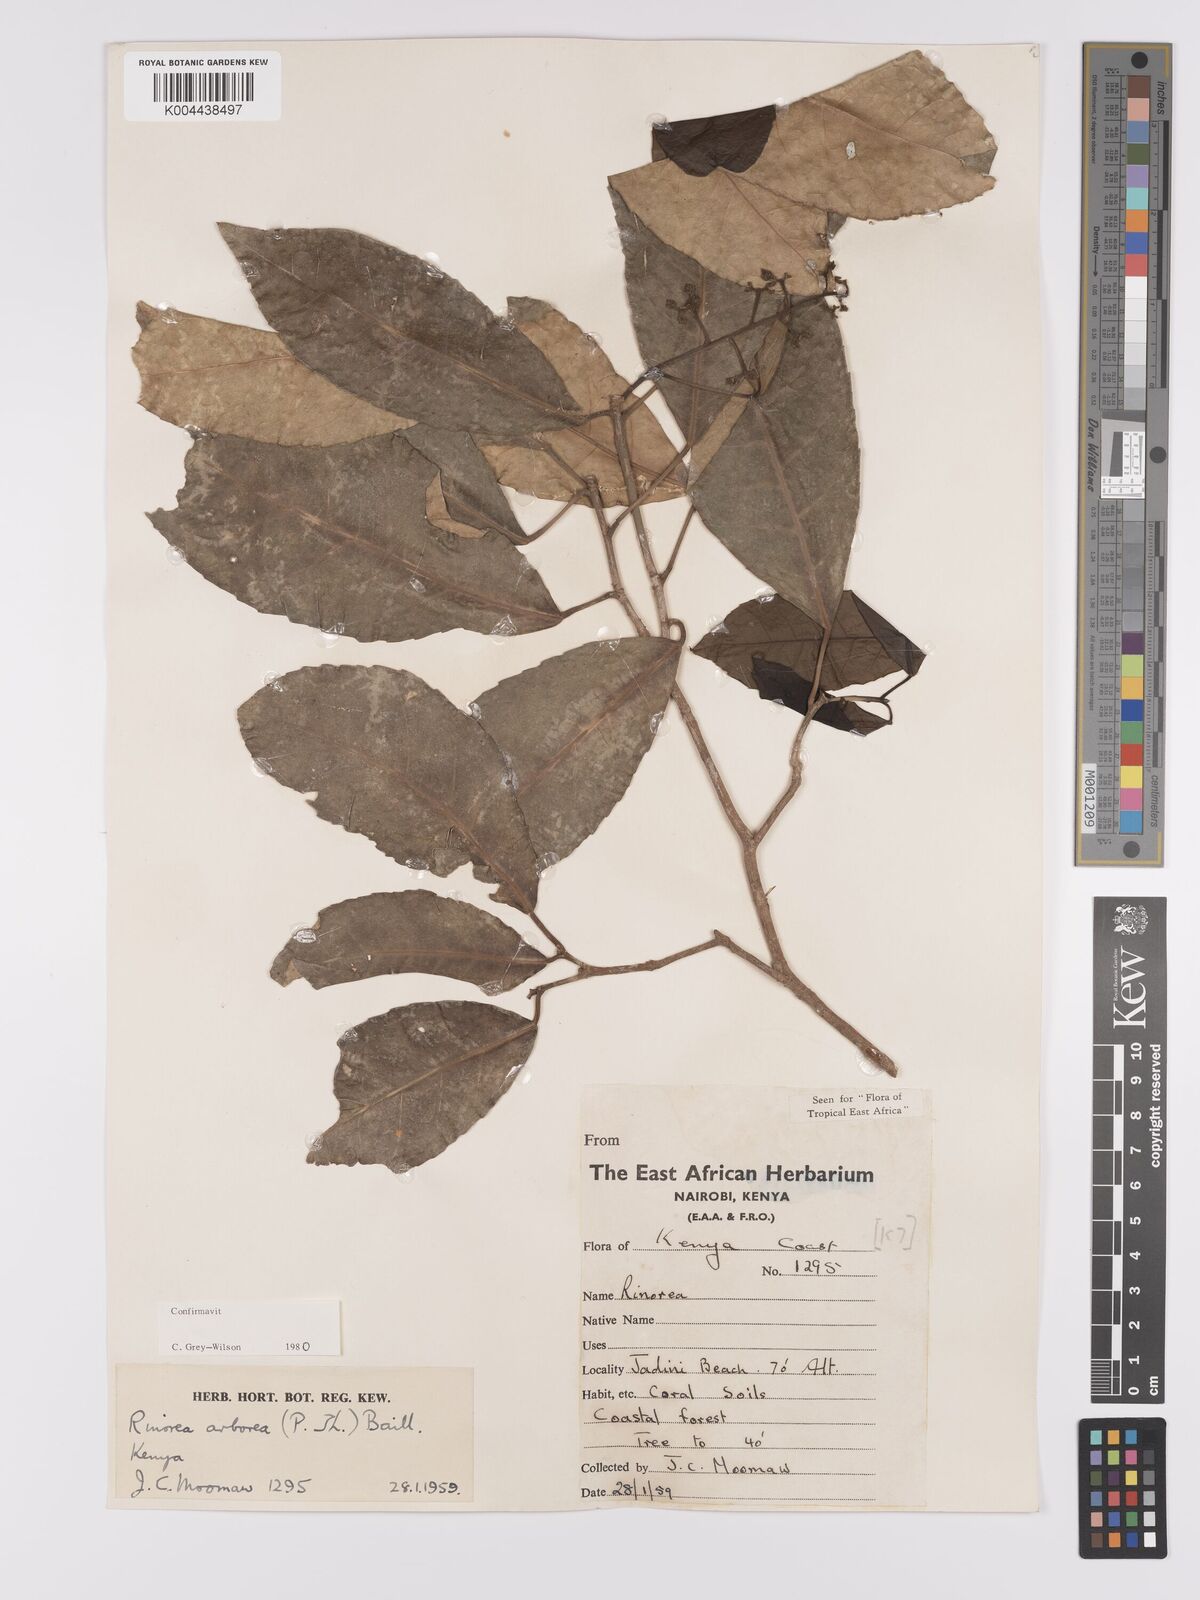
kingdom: Plantae
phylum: Tracheophyta
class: Magnoliopsida
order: Malpighiales
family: Violaceae
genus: Rinorea
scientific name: Rinorea arborea
